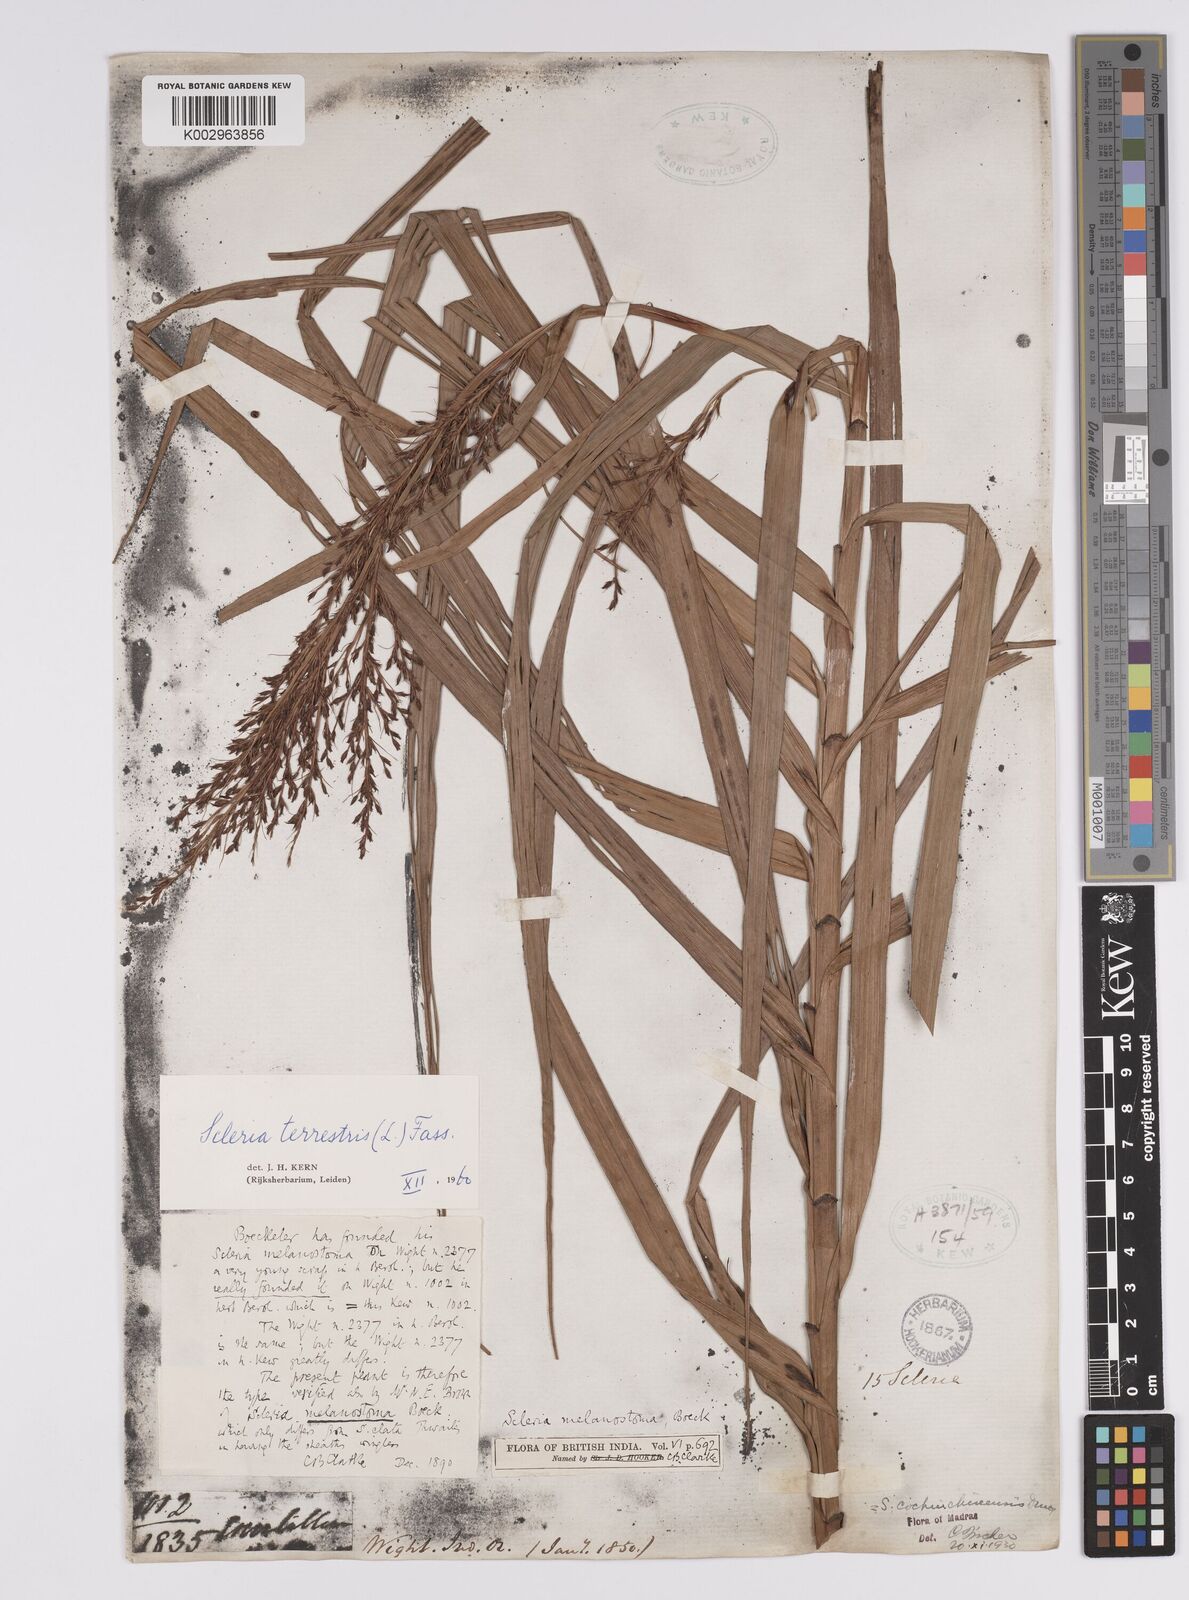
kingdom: Plantae
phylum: Tracheophyta
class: Liliopsida
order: Poales
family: Cyperaceae
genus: Scleria
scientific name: Scleria terrestris
